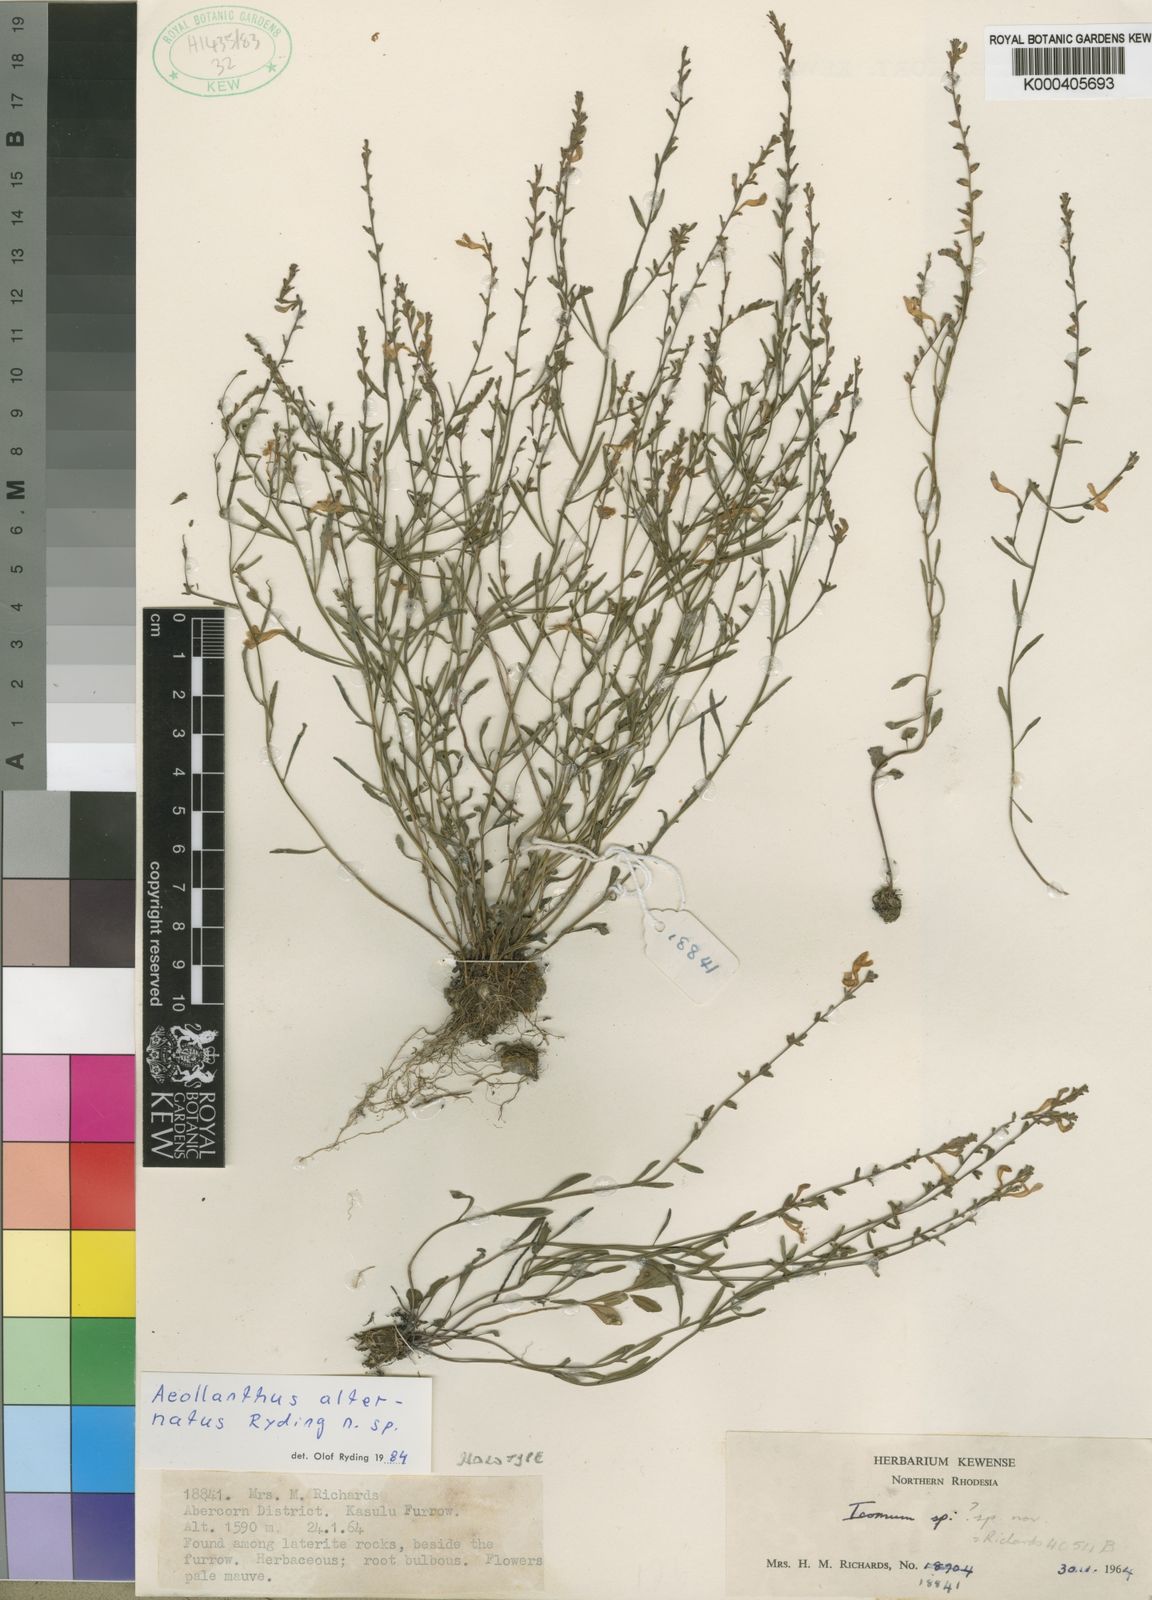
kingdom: Plantae
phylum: Tracheophyta
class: Magnoliopsida
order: Lamiales
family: Lamiaceae
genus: Aeollanthus
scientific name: Aeollanthus alternatus
